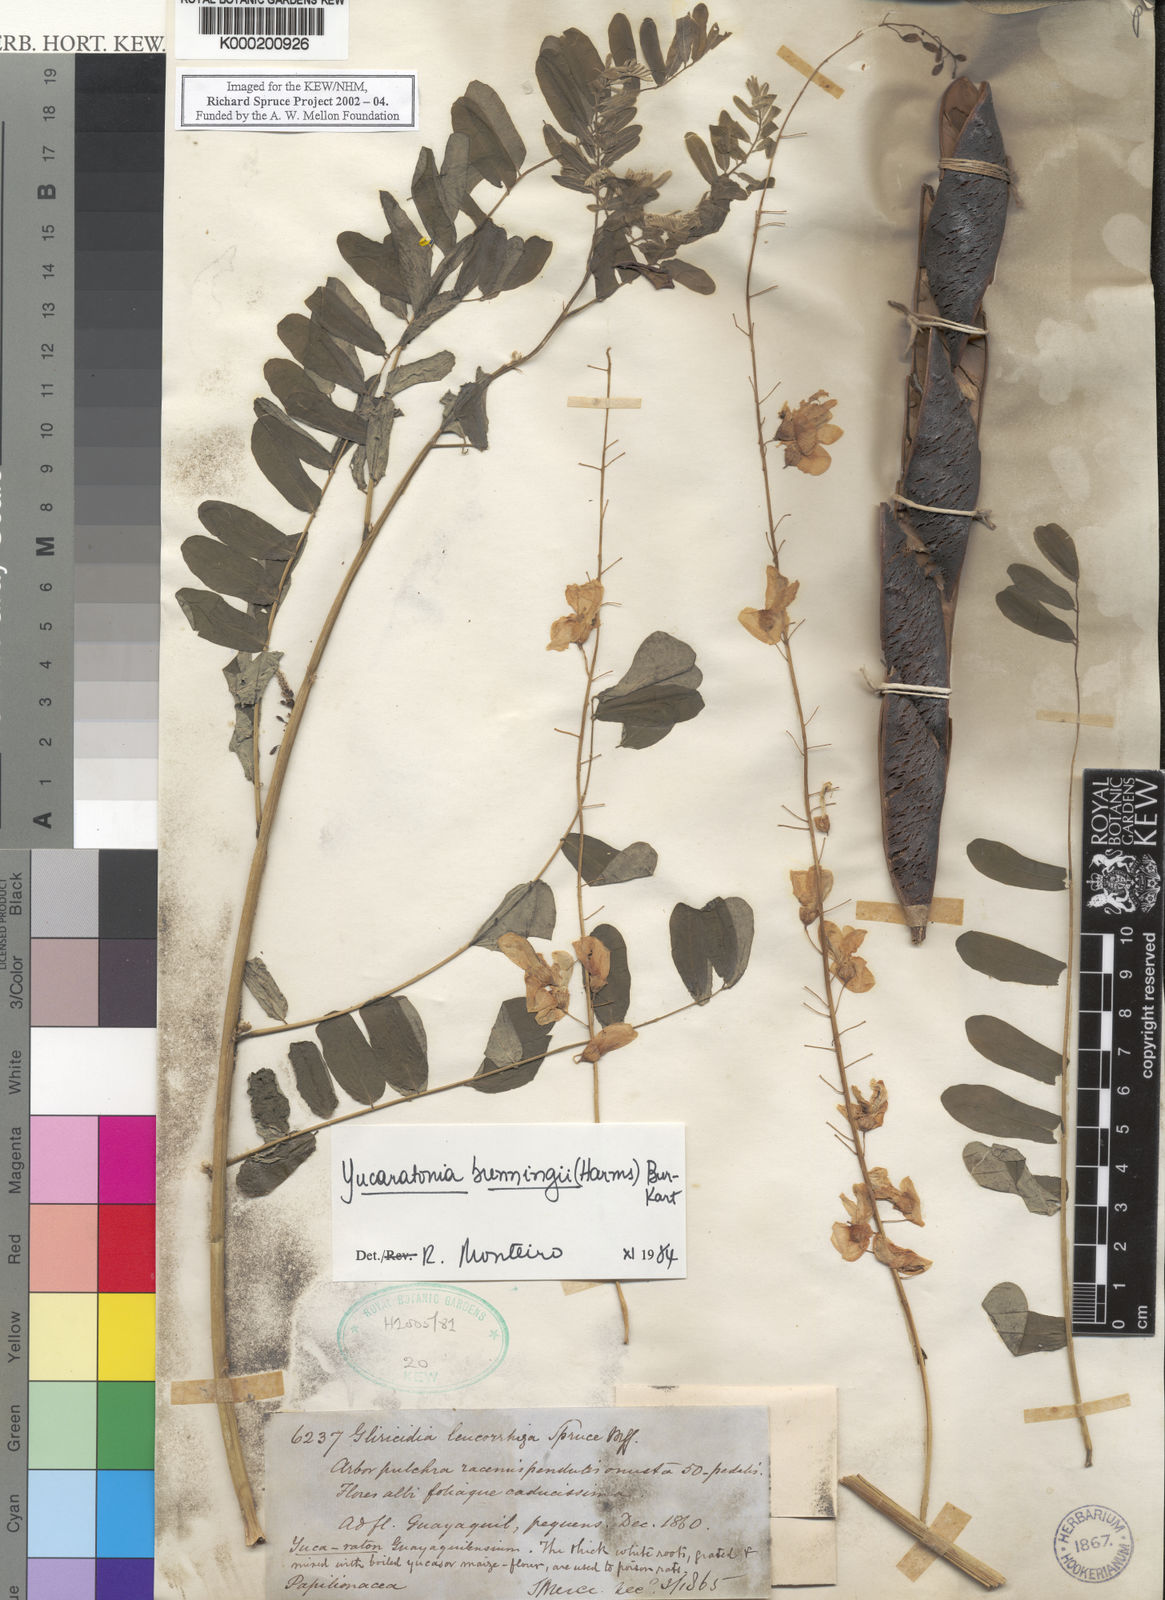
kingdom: Plantae
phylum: Tracheophyta
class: Magnoliopsida
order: Fabales
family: Fabaceae
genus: Gliricidia
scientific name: Gliricidia brenningii
